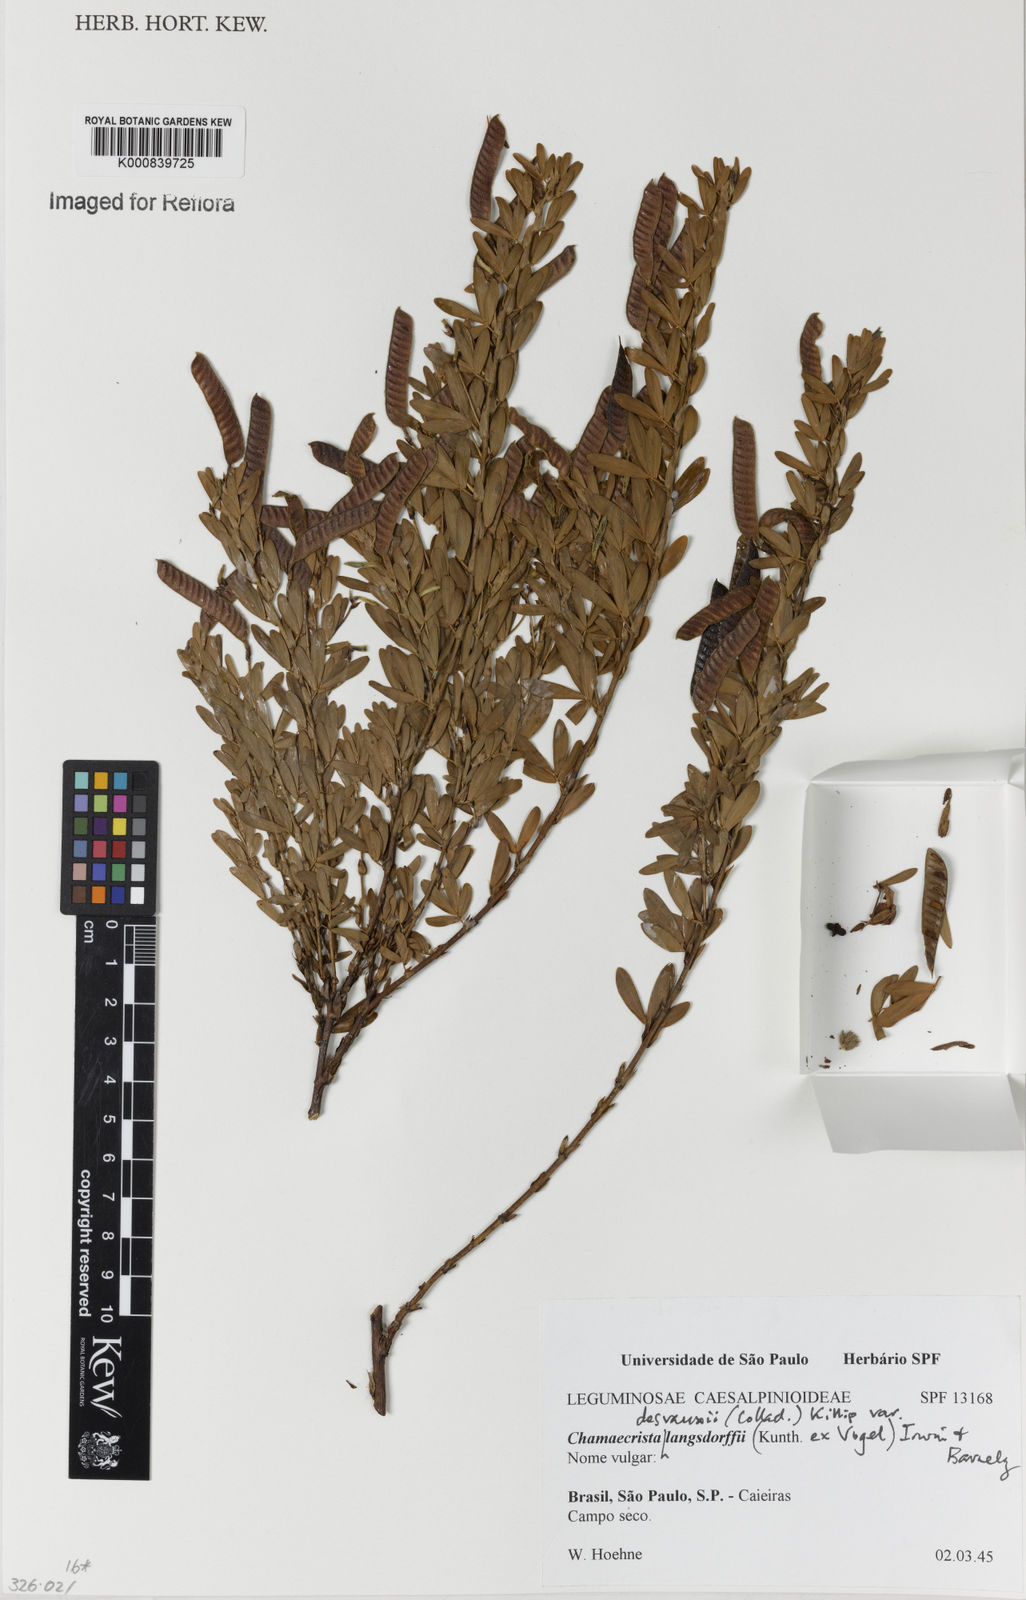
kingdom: Plantae
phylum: Tracheophyta
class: Magnoliopsida
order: Fabales
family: Fabaceae
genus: Chamaecrista
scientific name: Chamaecrista langsdorffii
